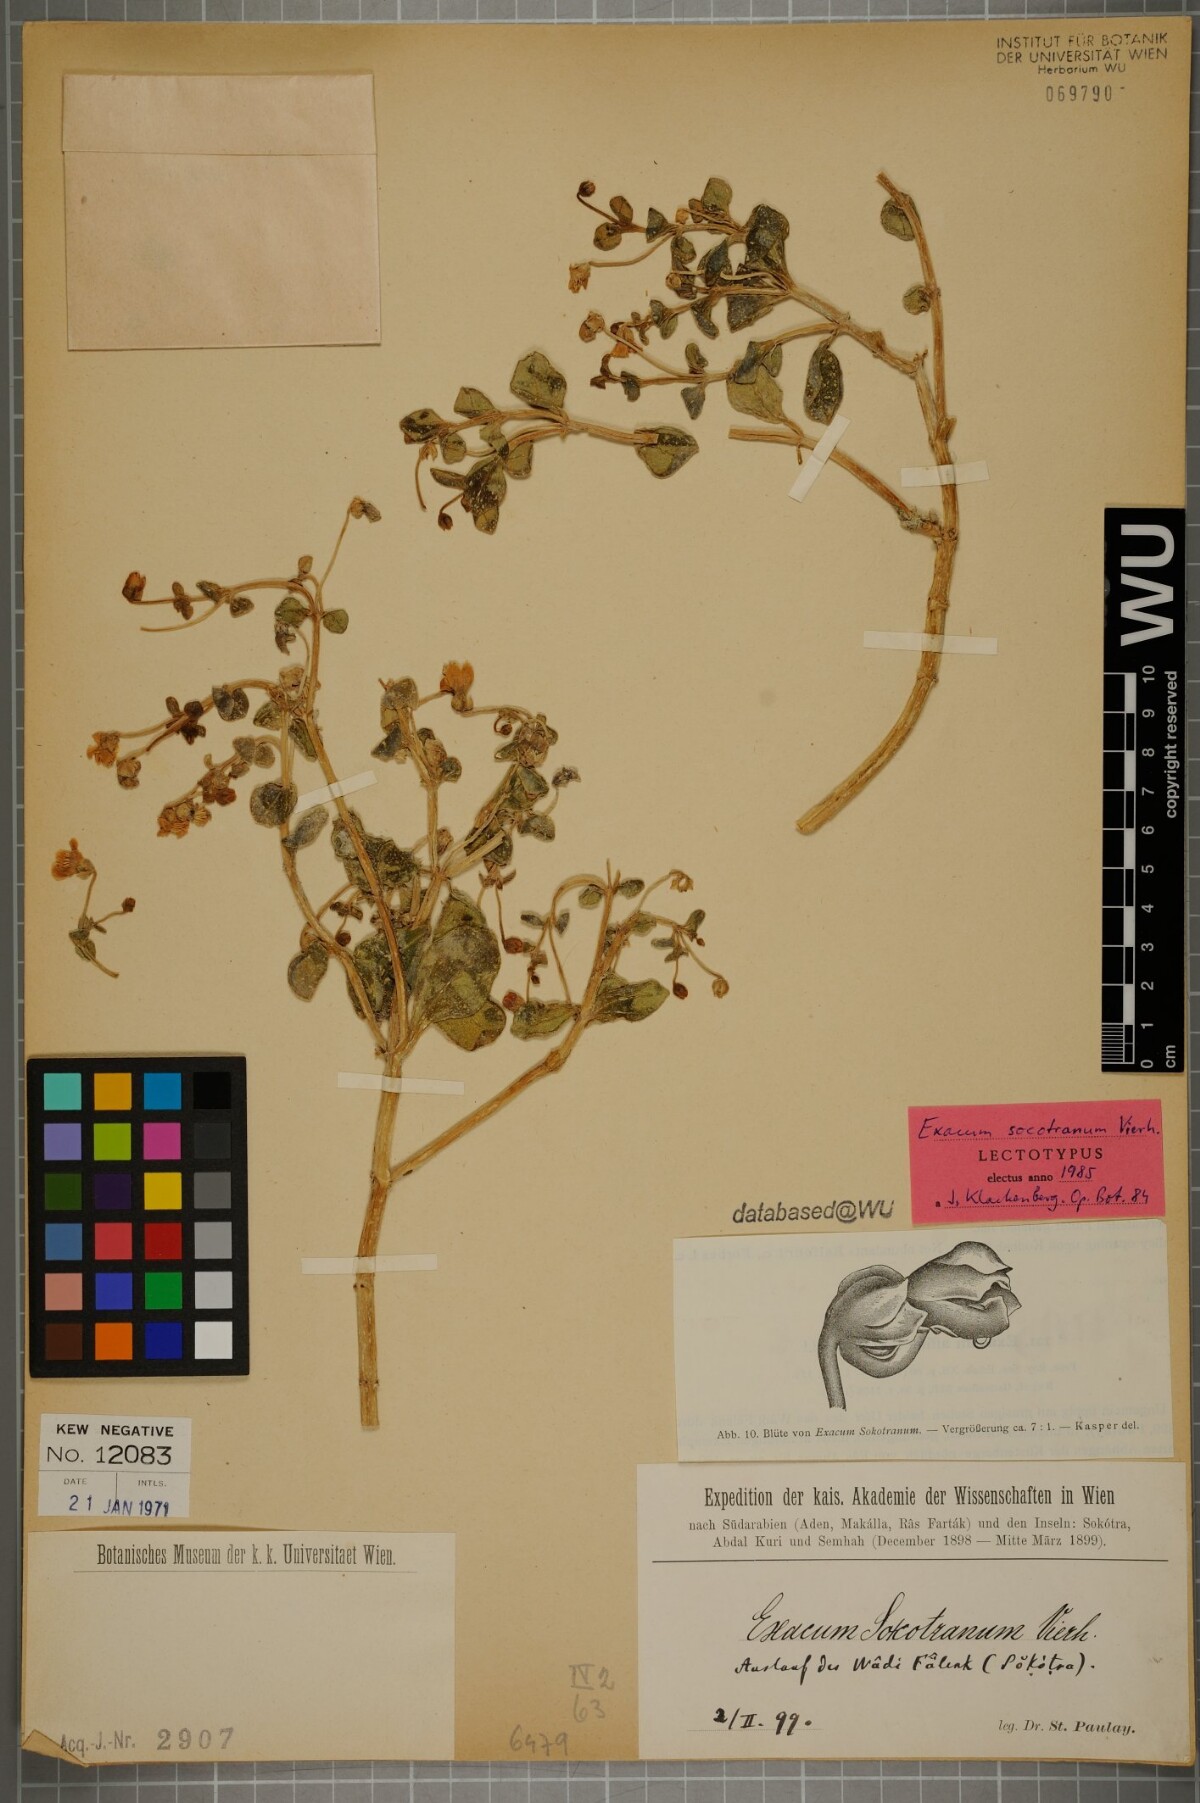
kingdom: Plantae
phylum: Tracheophyta
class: Magnoliopsida
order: Gentianales
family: Gentianaceae
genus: Exacum
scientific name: Exacum socotranum
